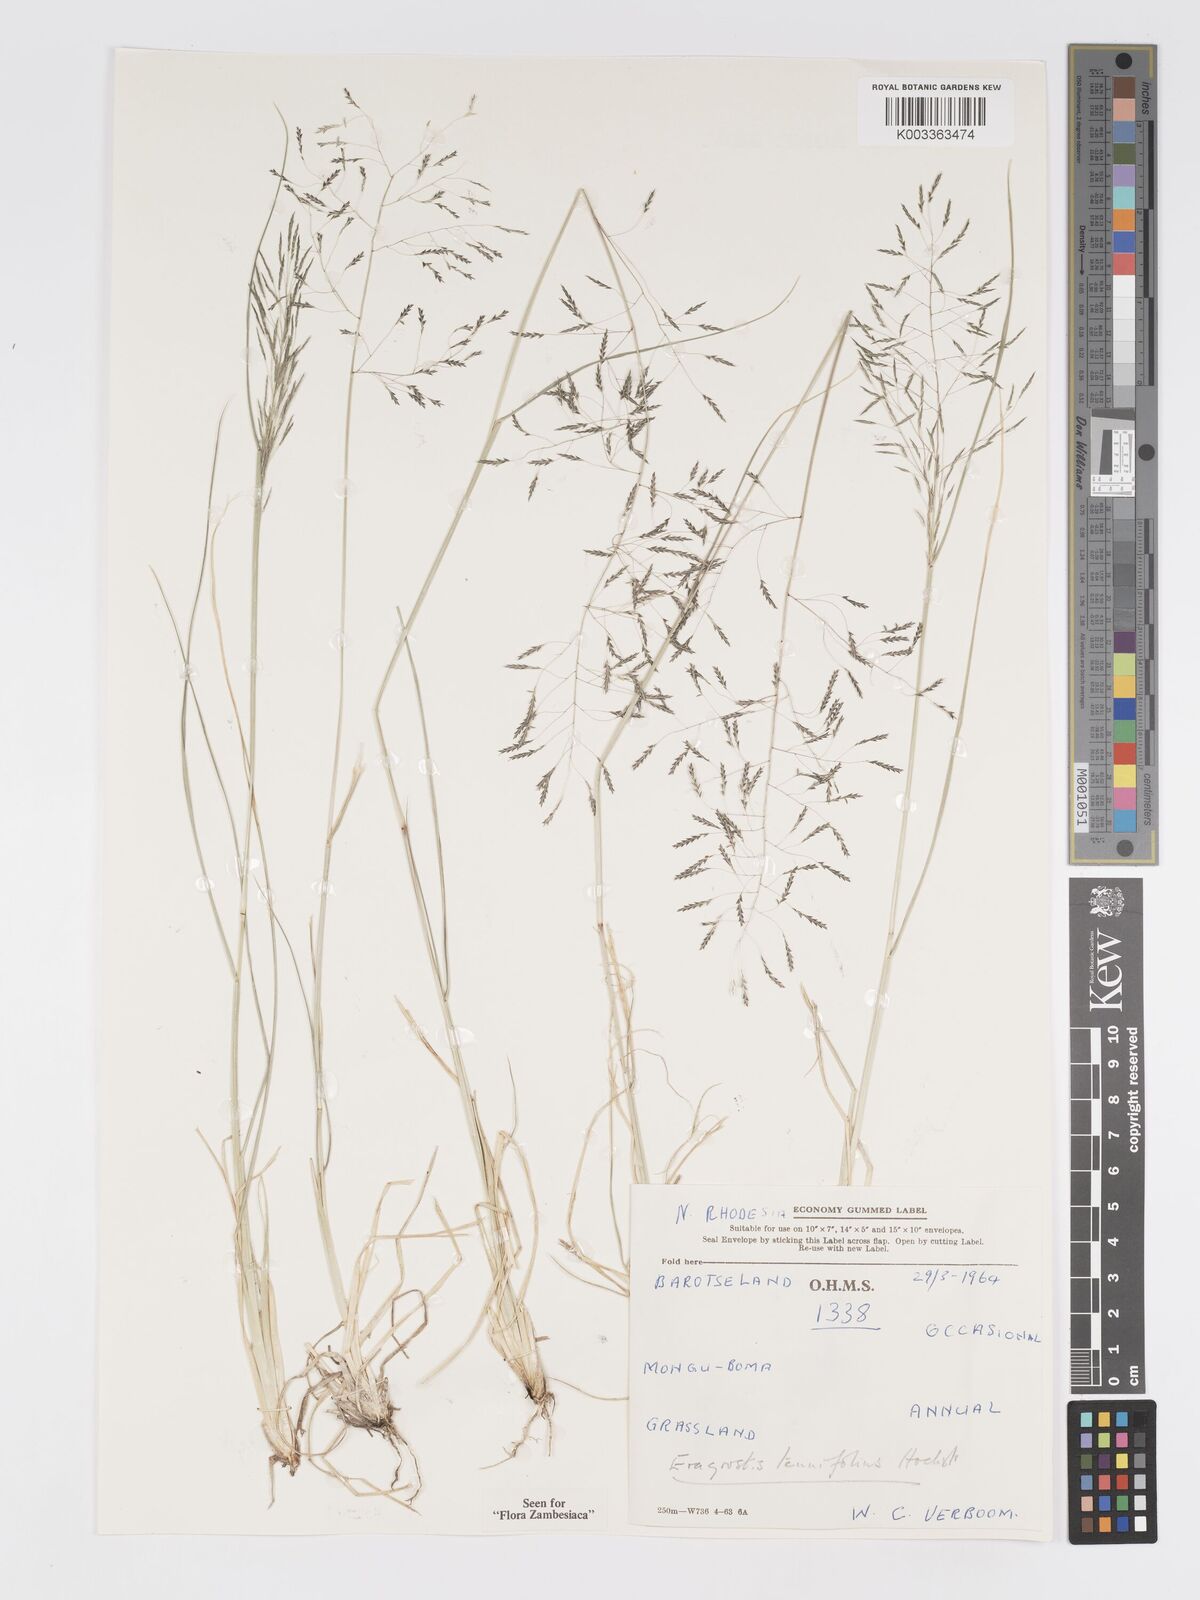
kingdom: Plantae
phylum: Tracheophyta
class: Liliopsida
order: Poales
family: Poaceae
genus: Eragrostis
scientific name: Eragrostis tenuifolia
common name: Elastic grass
